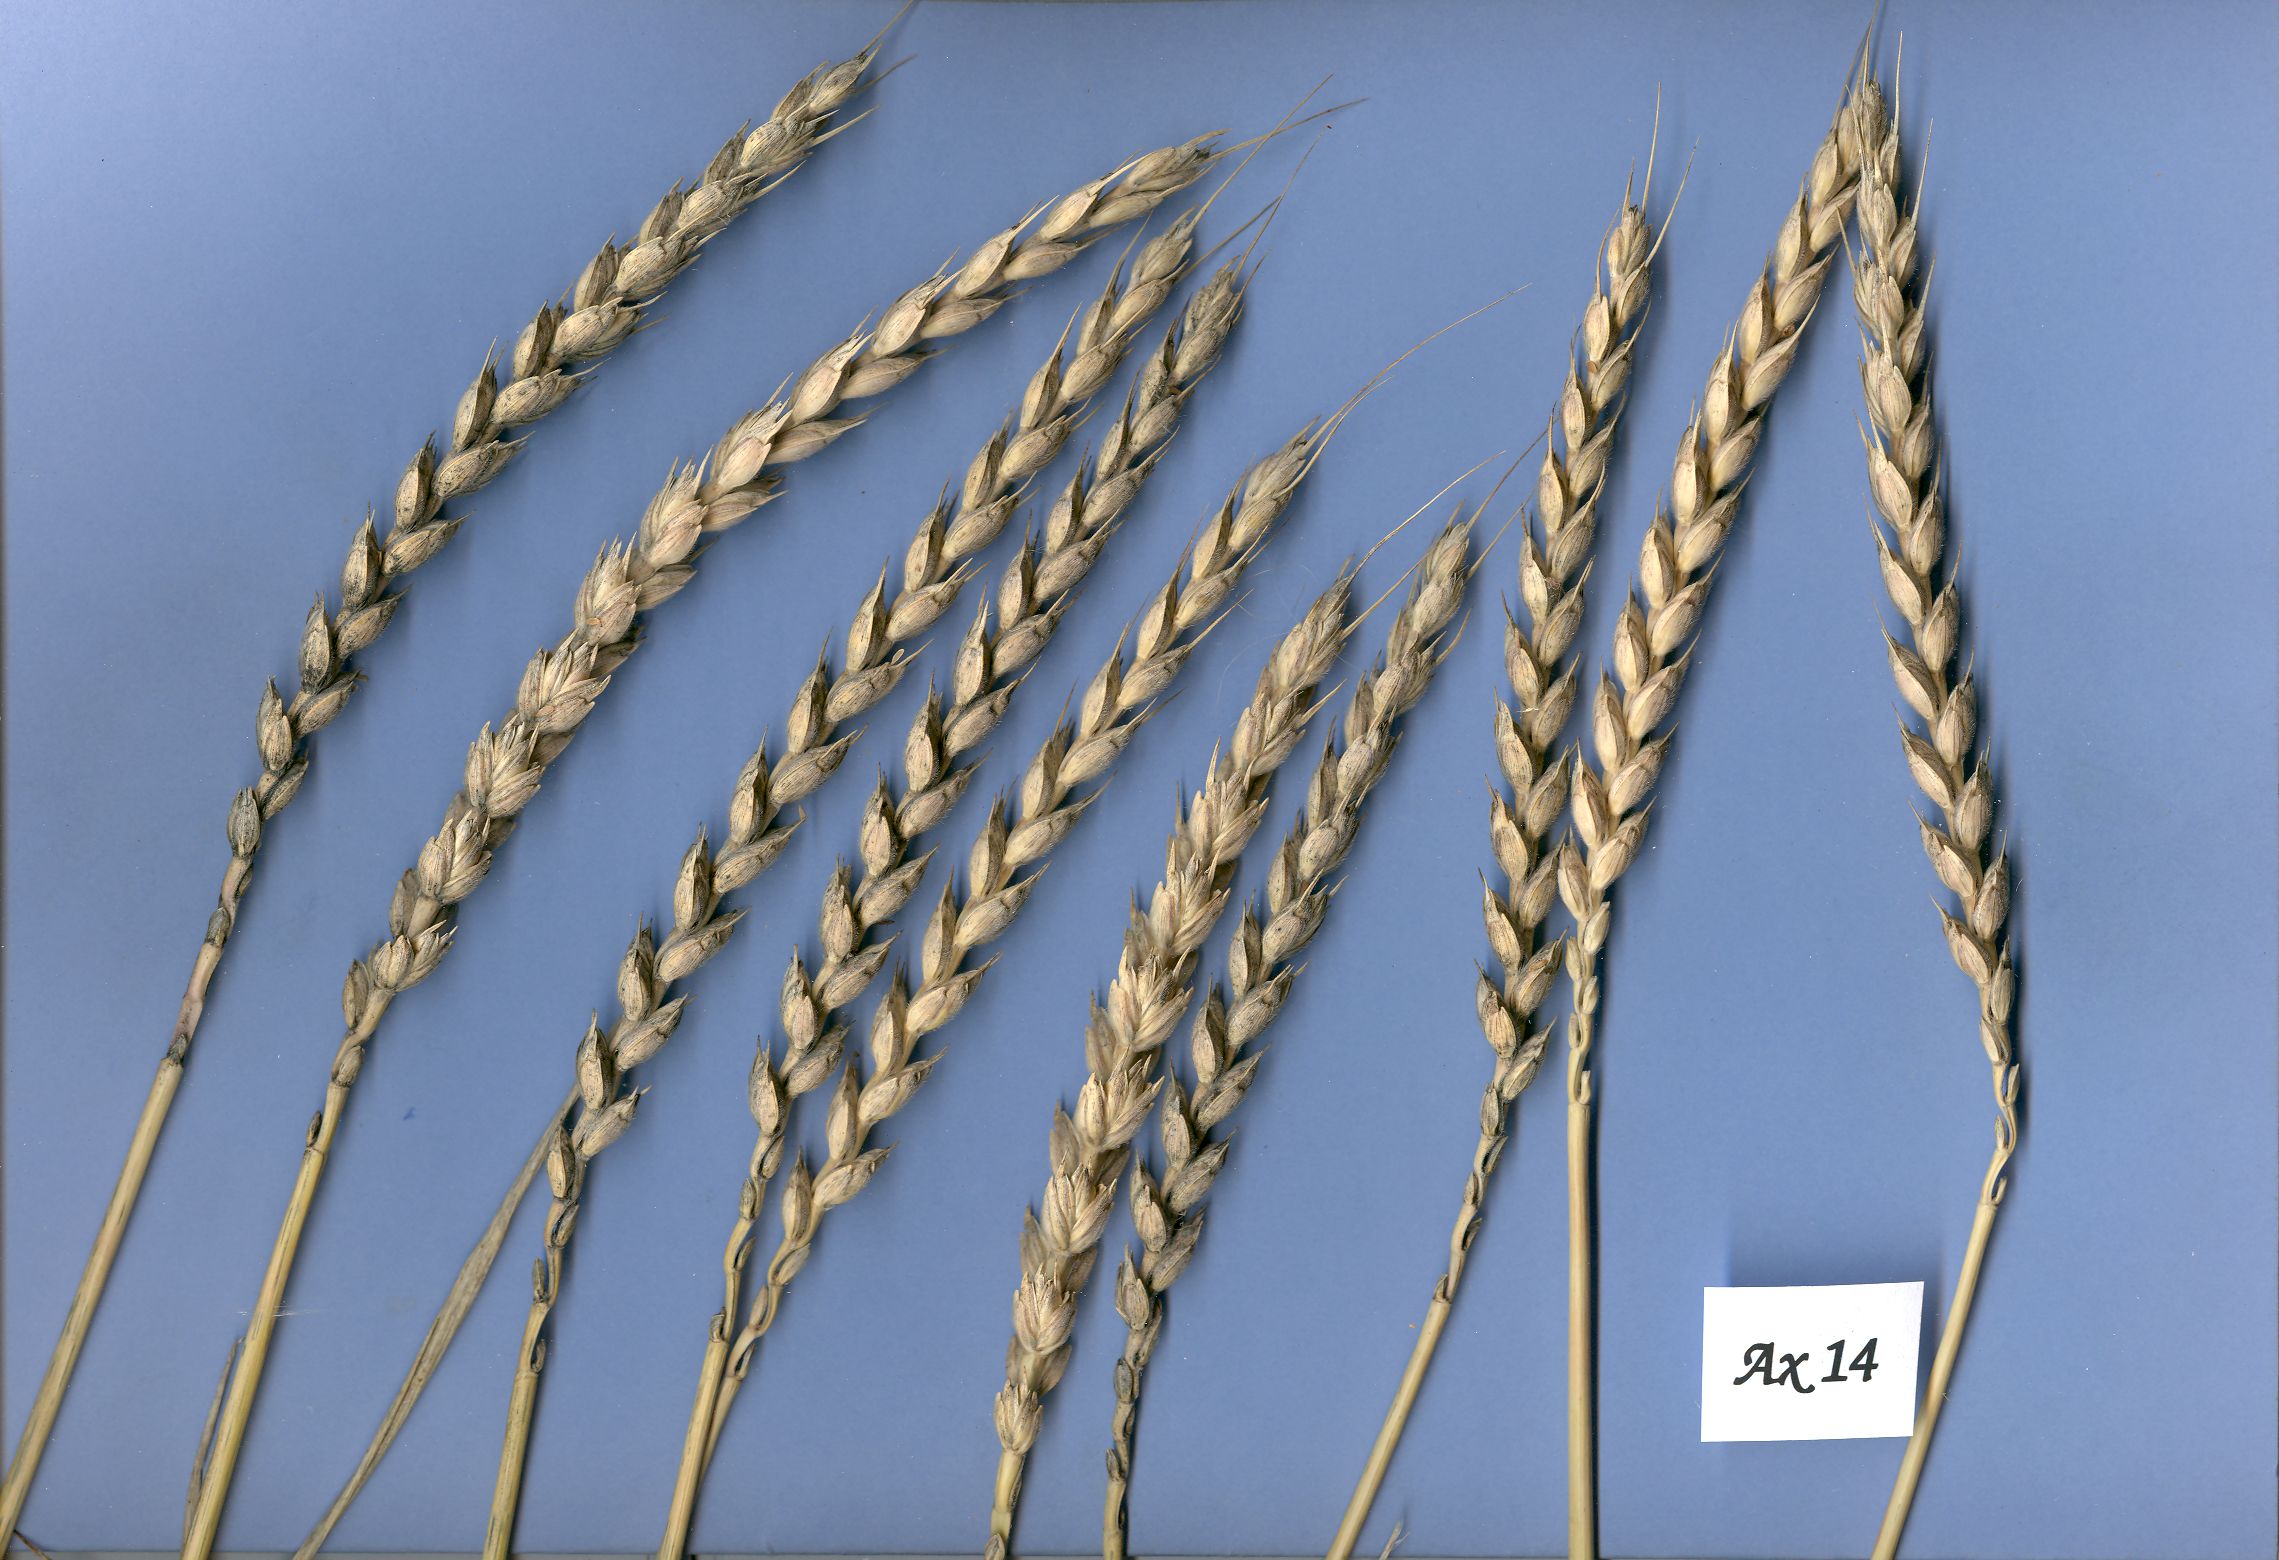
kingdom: Plantae
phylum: Tracheophyta
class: Liliopsida
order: Poales
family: Poaceae
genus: Triticum
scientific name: Triticum aestivum
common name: Common wheat
